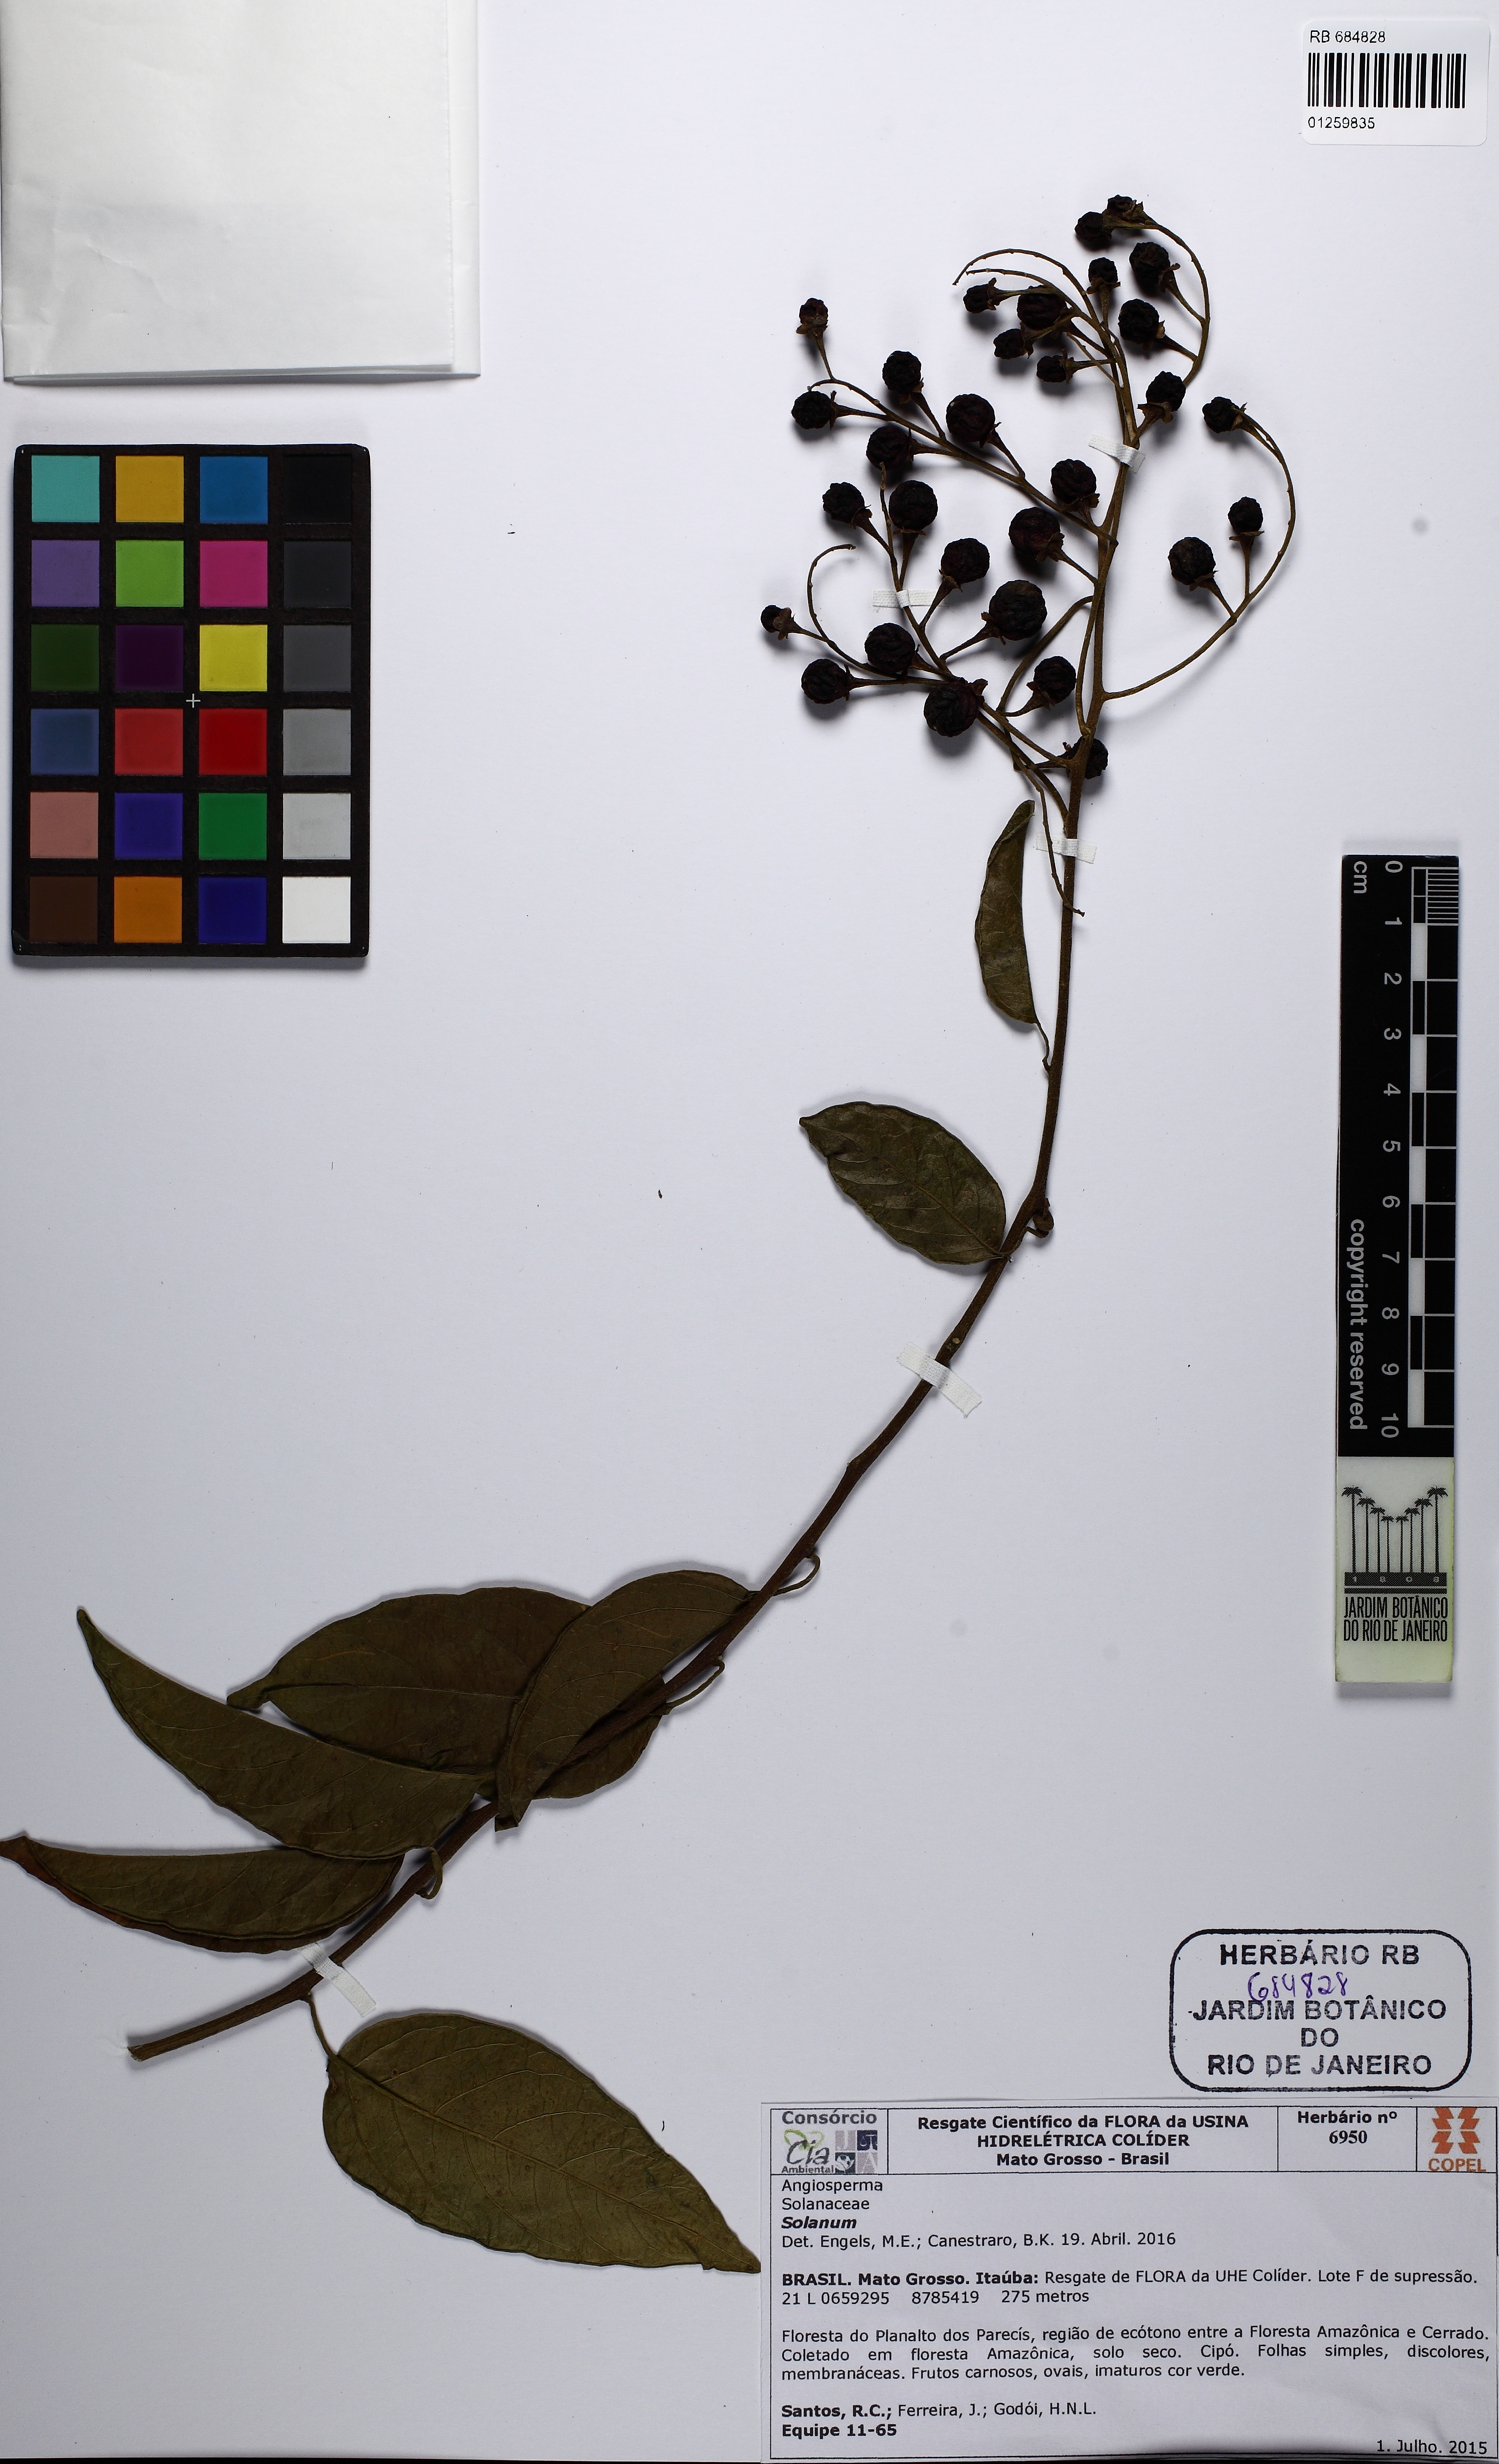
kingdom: Plantae
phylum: Tracheophyta
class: Magnoliopsida
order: Solanales
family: Solanaceae
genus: Solanum
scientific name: Solanum uncinellum
